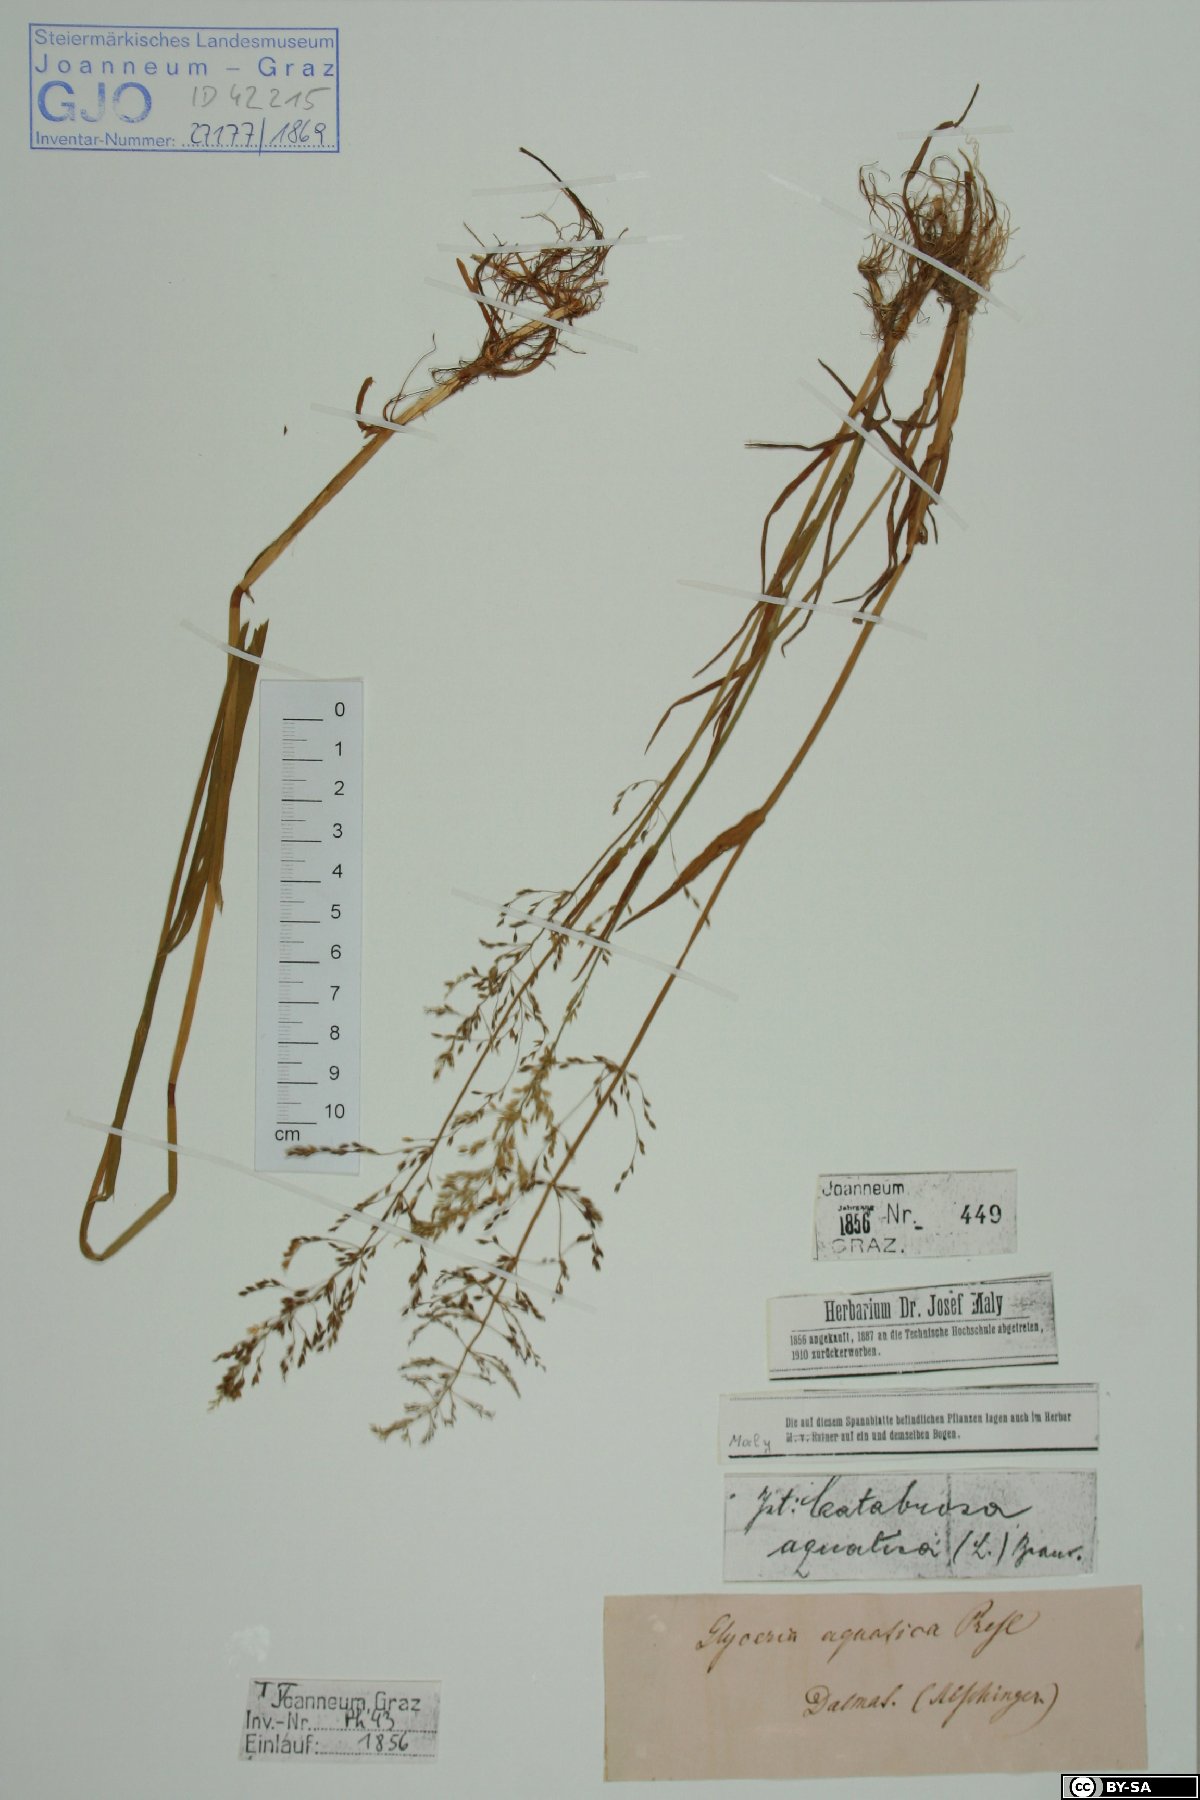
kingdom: Plantae
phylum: Tracheophyta
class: Liliopsida
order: Poales
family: Poaceae
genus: Catabrosa
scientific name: Catabrosa aquatica
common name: Whorl-grass
